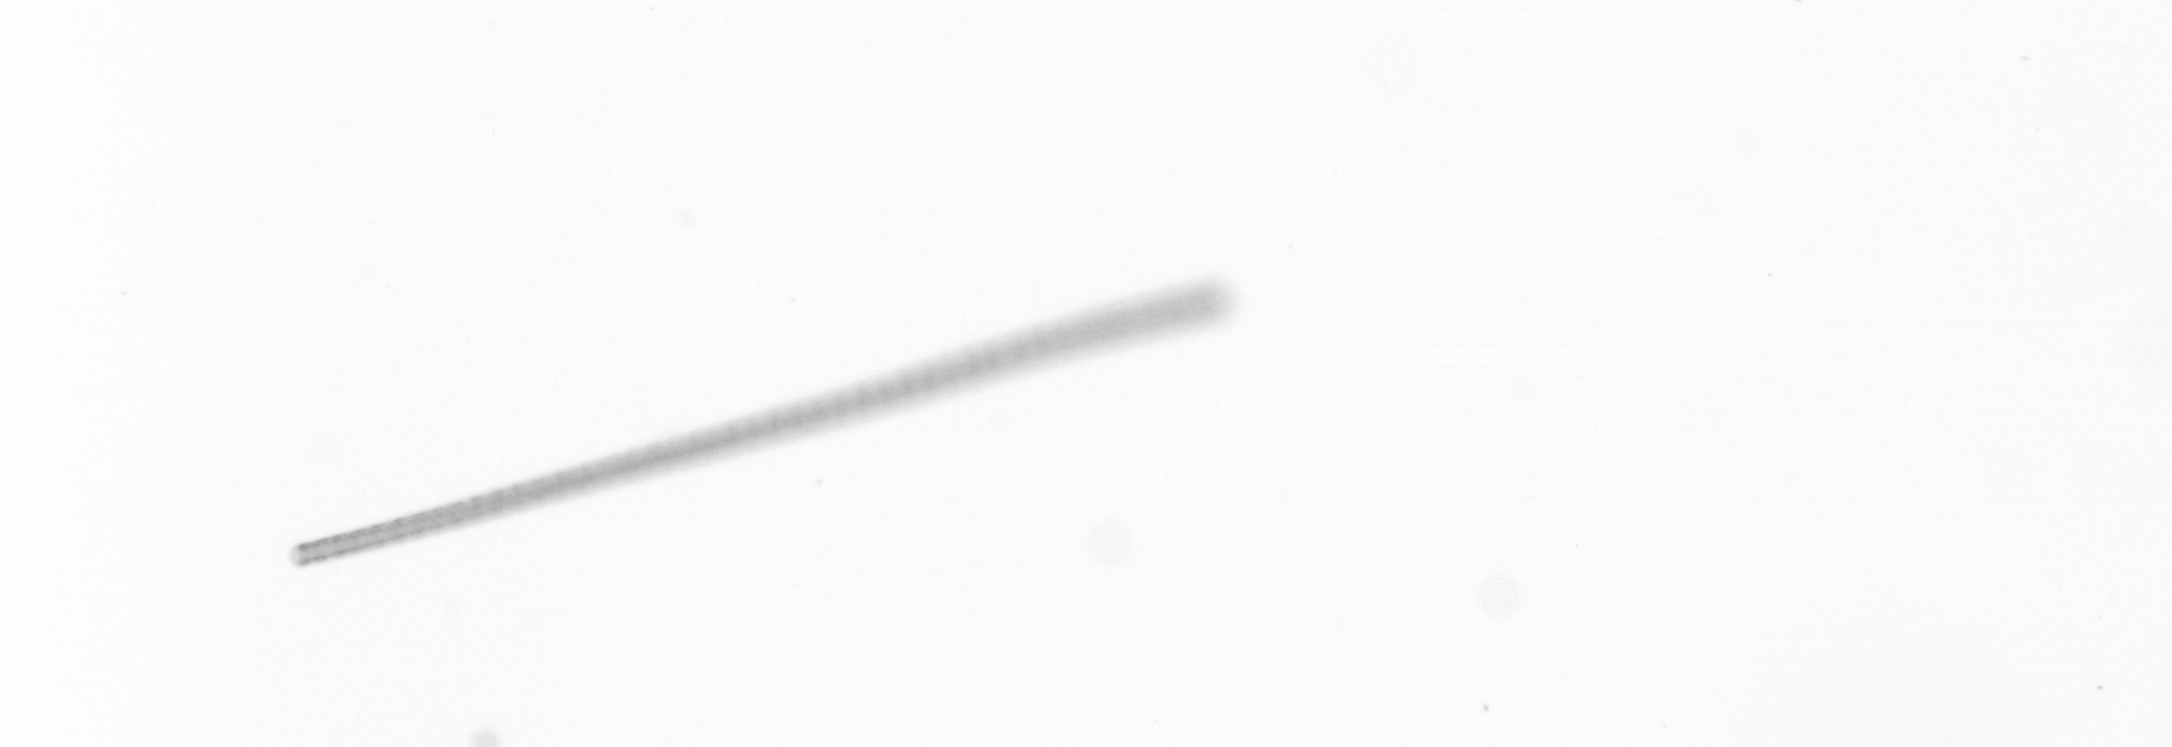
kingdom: Chromista
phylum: Ochrophyta
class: Bacillariophyceae
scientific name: Bacillariophyceae
